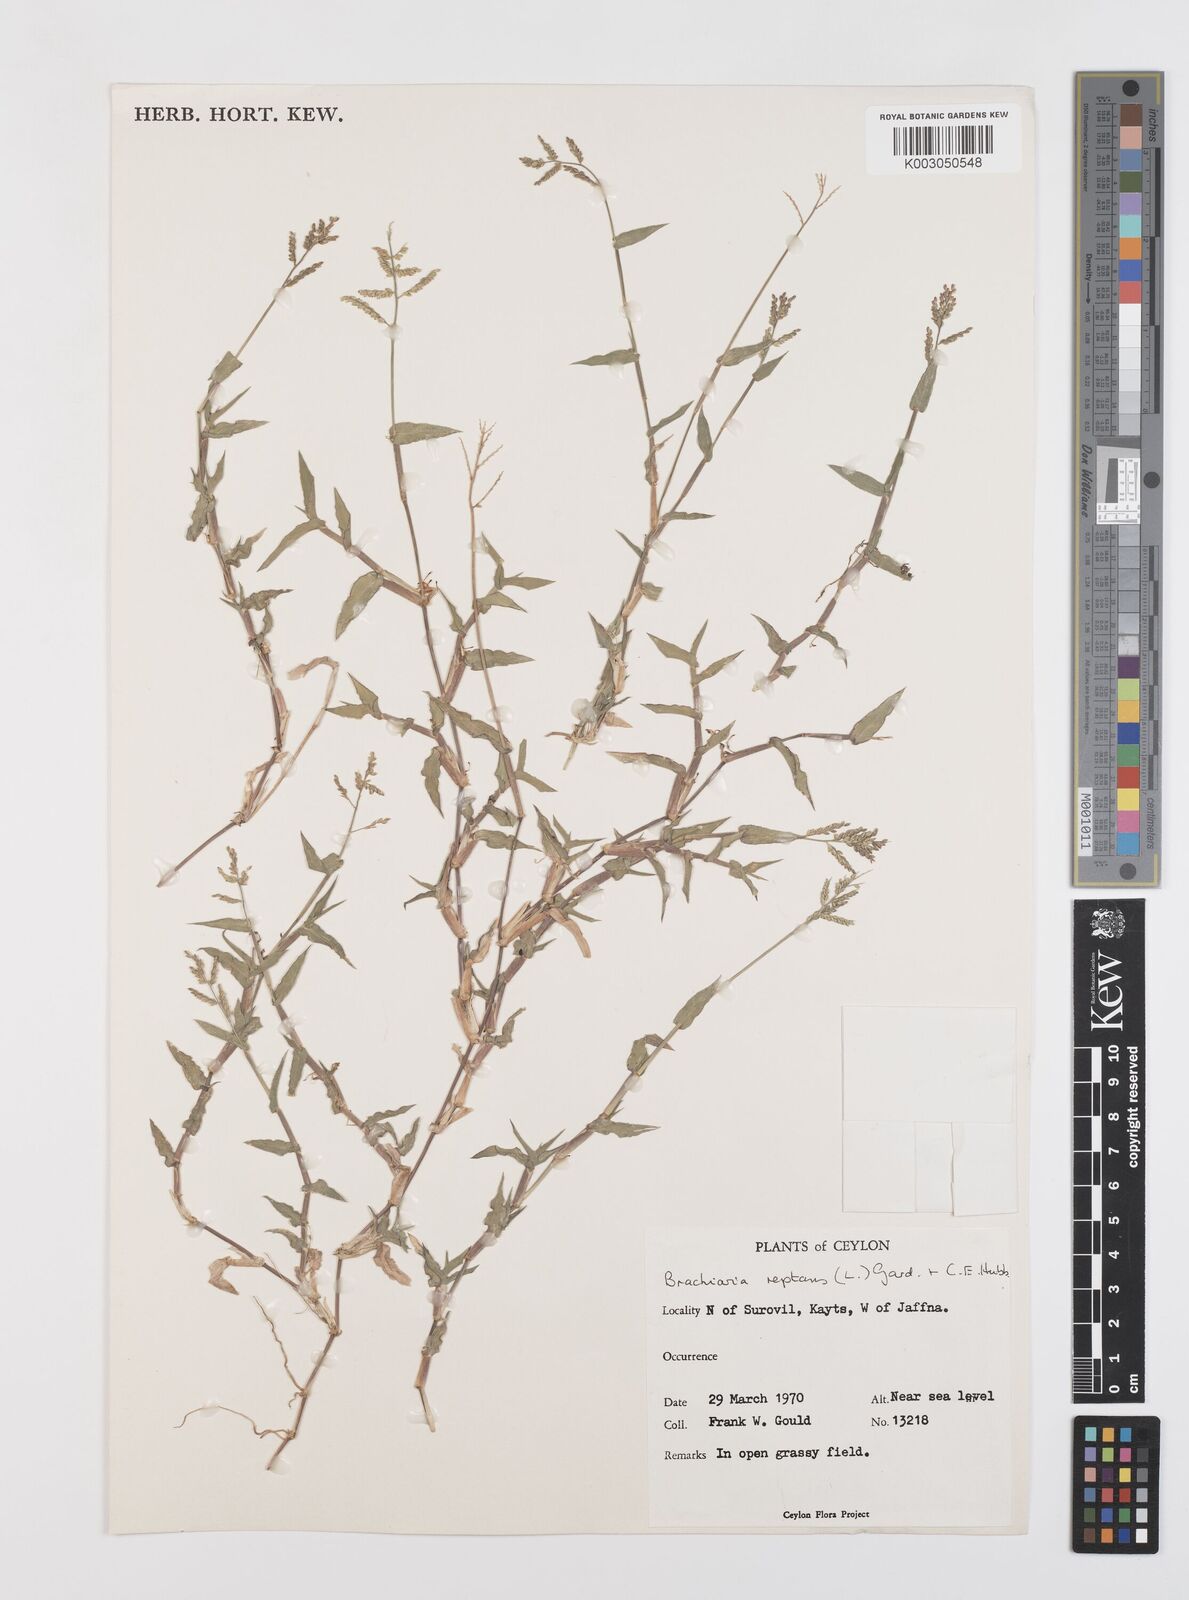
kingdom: Plantae
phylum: Tracheophyta
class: Liliopsida
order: Poales
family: Poaceae
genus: Urochloa
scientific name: Urochloa reptans
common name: Sprawling signalgrass
